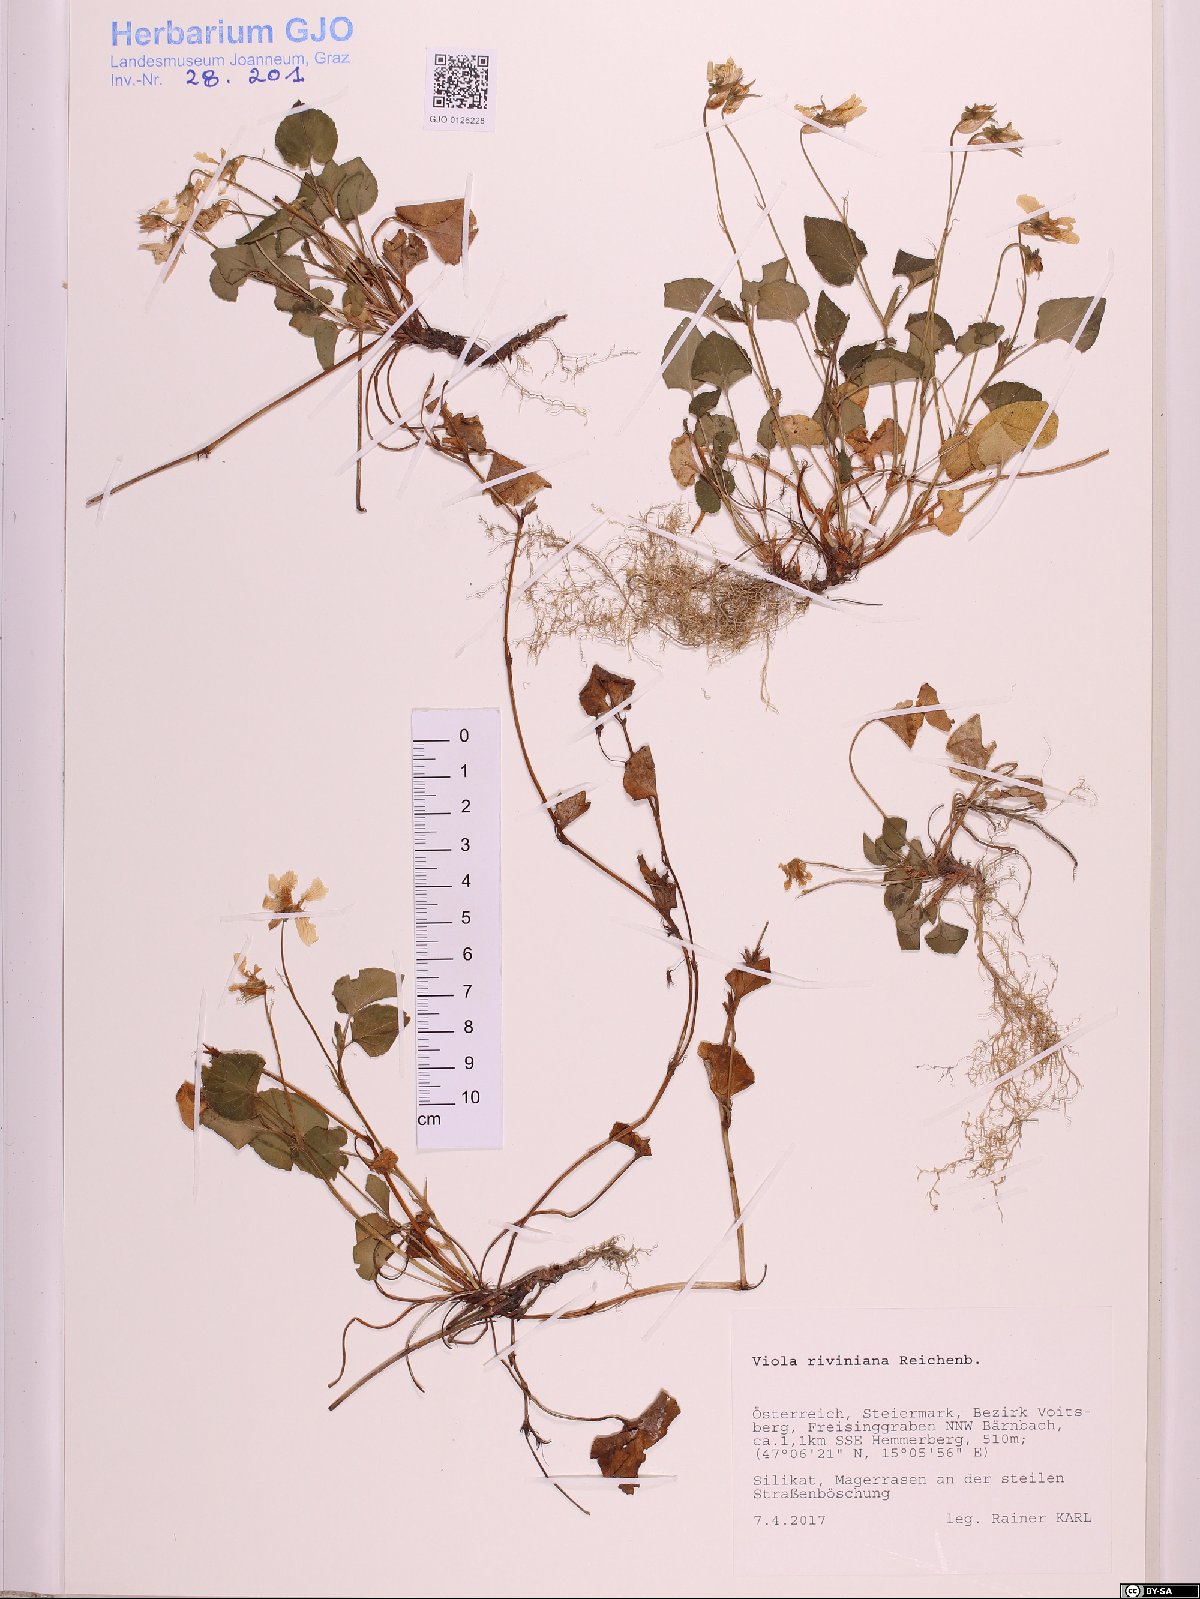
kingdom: Plantae
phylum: Tracheophyta
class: Magnoliopsida
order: Malpighiales
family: Violaceae
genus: Viola
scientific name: Viola riviniana
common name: Common dog-violet
